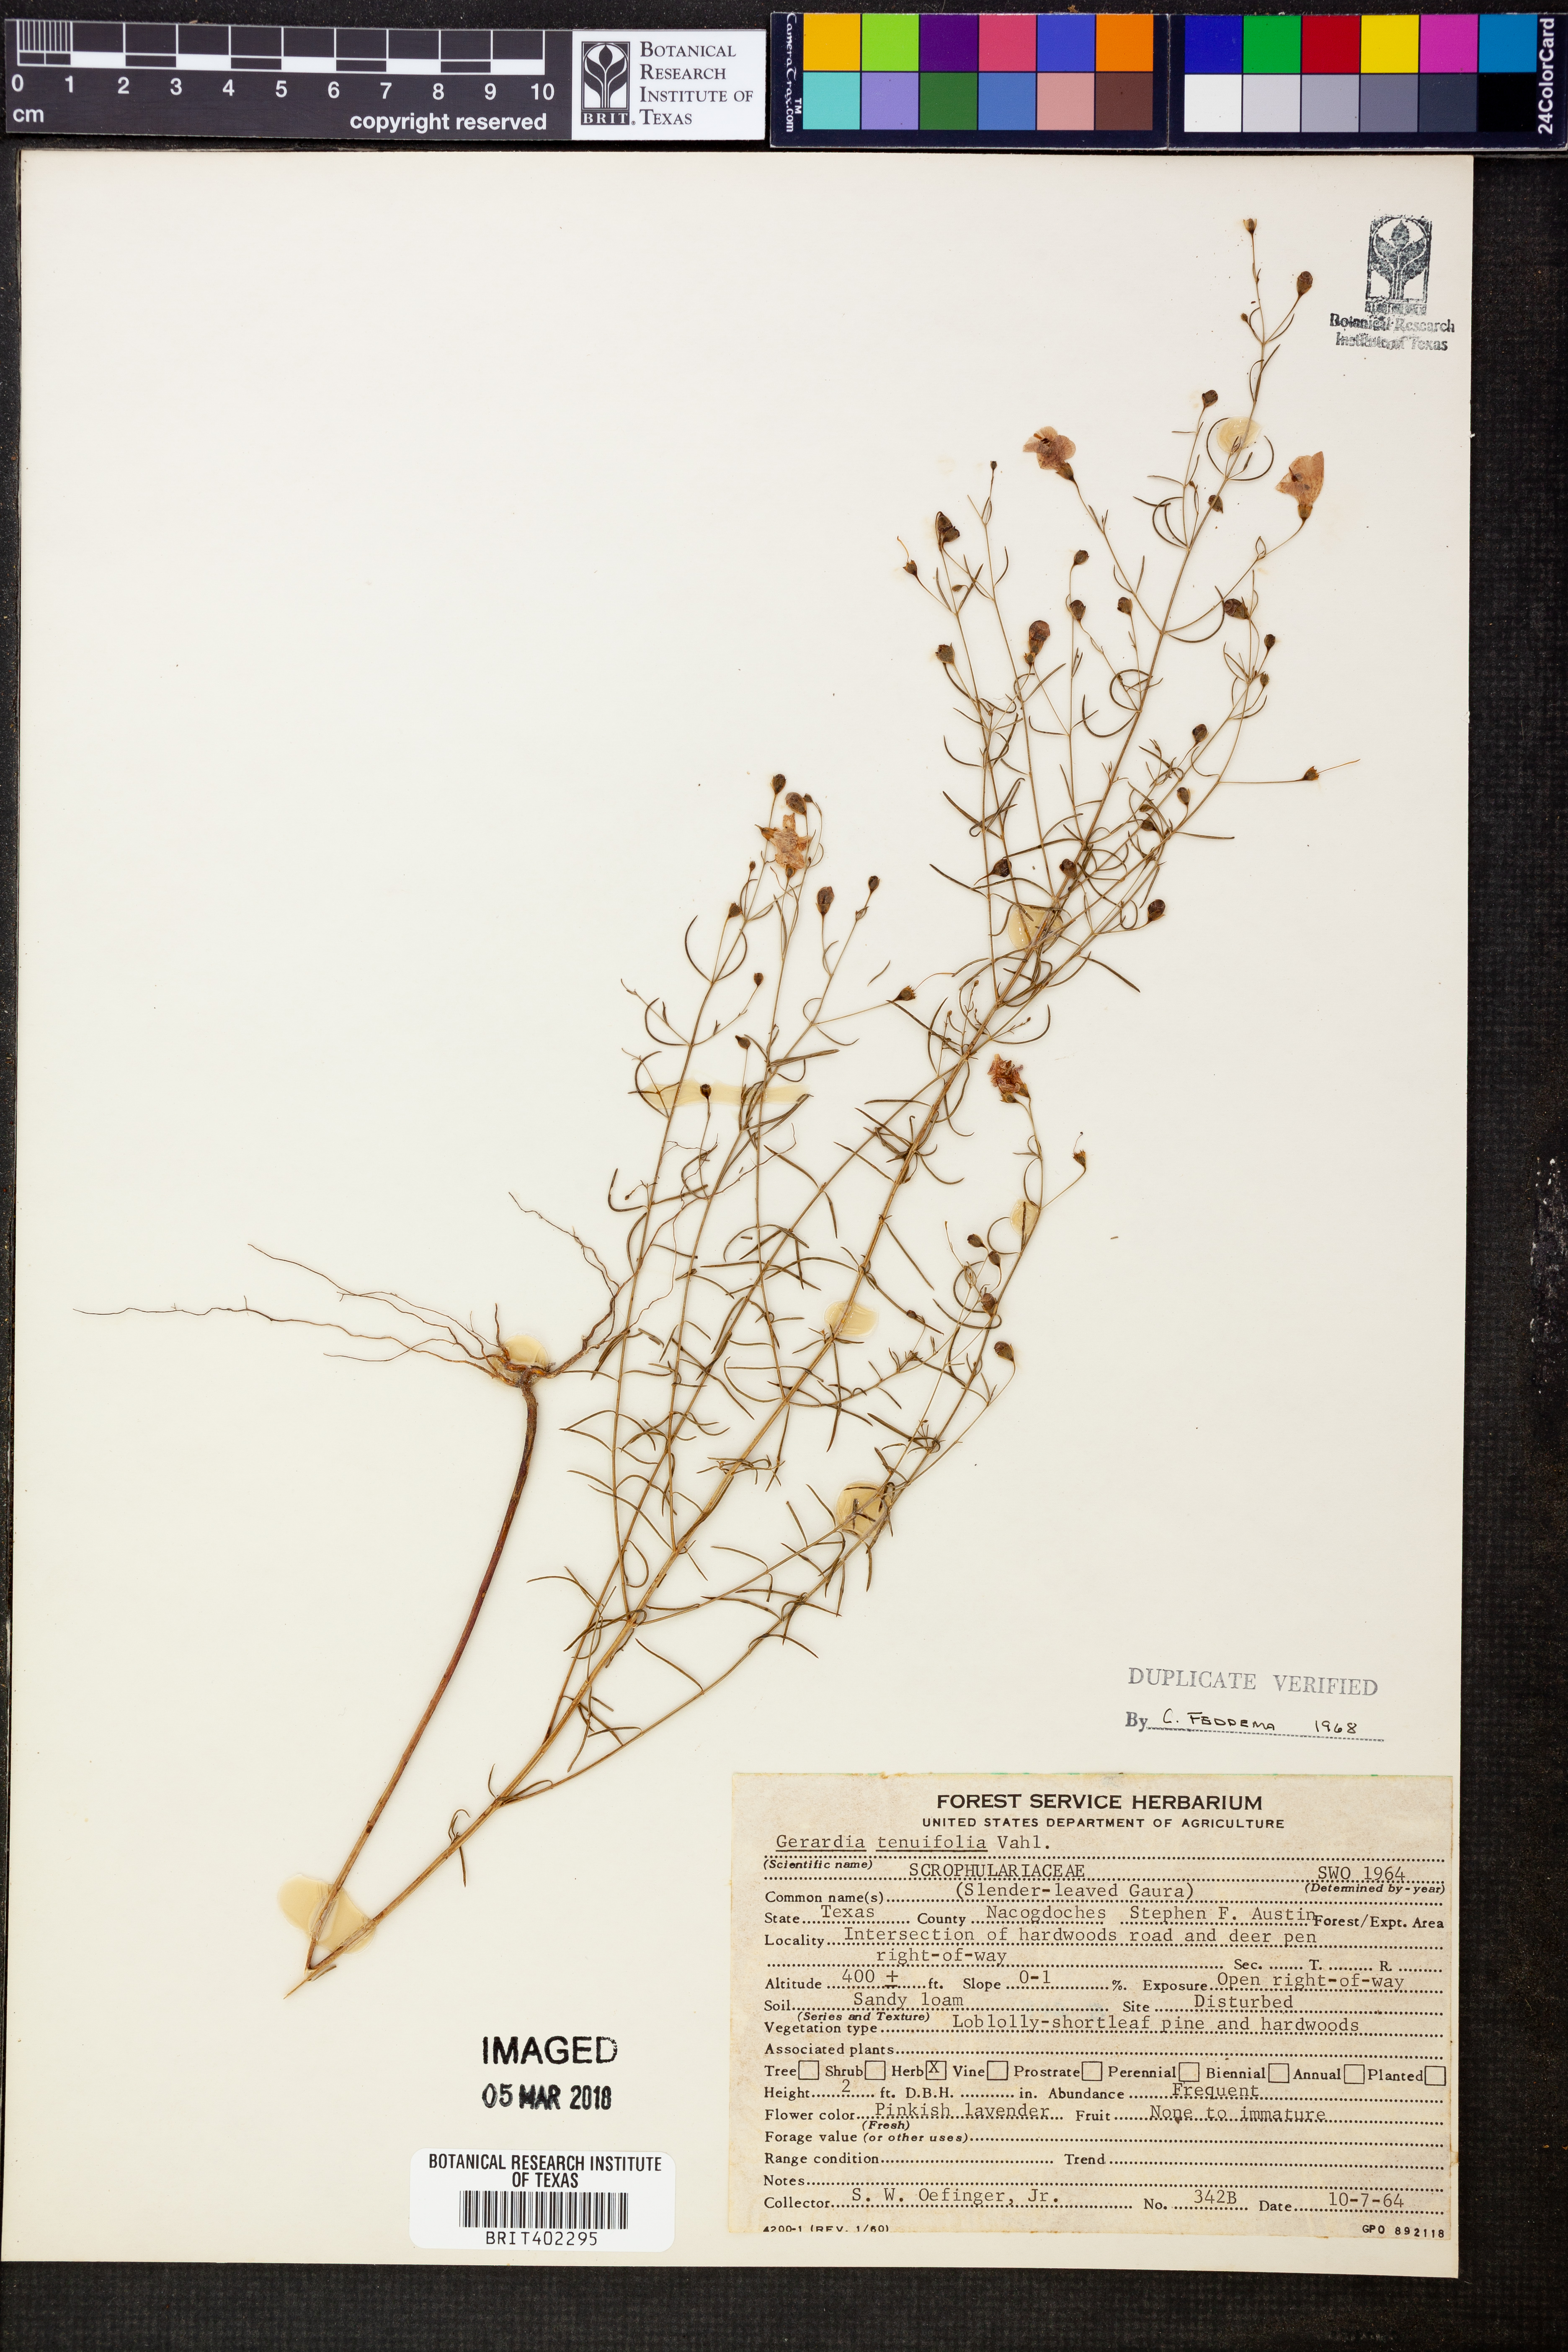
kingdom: Plantae
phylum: Tracheophyta
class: Magnoliopsida
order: Lamiales
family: Orobanchaceae
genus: Agalinis
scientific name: Agalinis tenuifolia
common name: Slender agalinis
